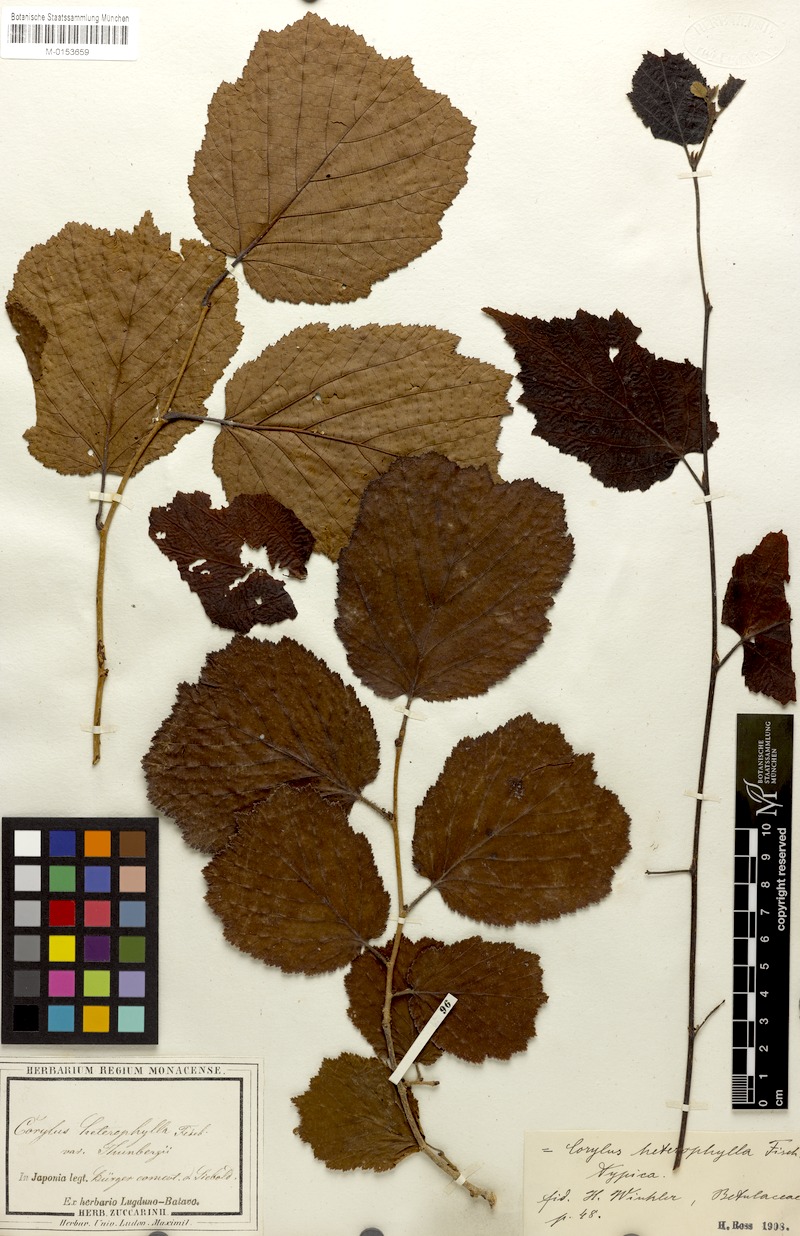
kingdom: Plantae
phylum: Tracheophyta
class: Magnoliopsida
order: Fagales
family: Betulaceae
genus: Corylus
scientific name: Corylus heterophylla
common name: Siberian hazelnut
